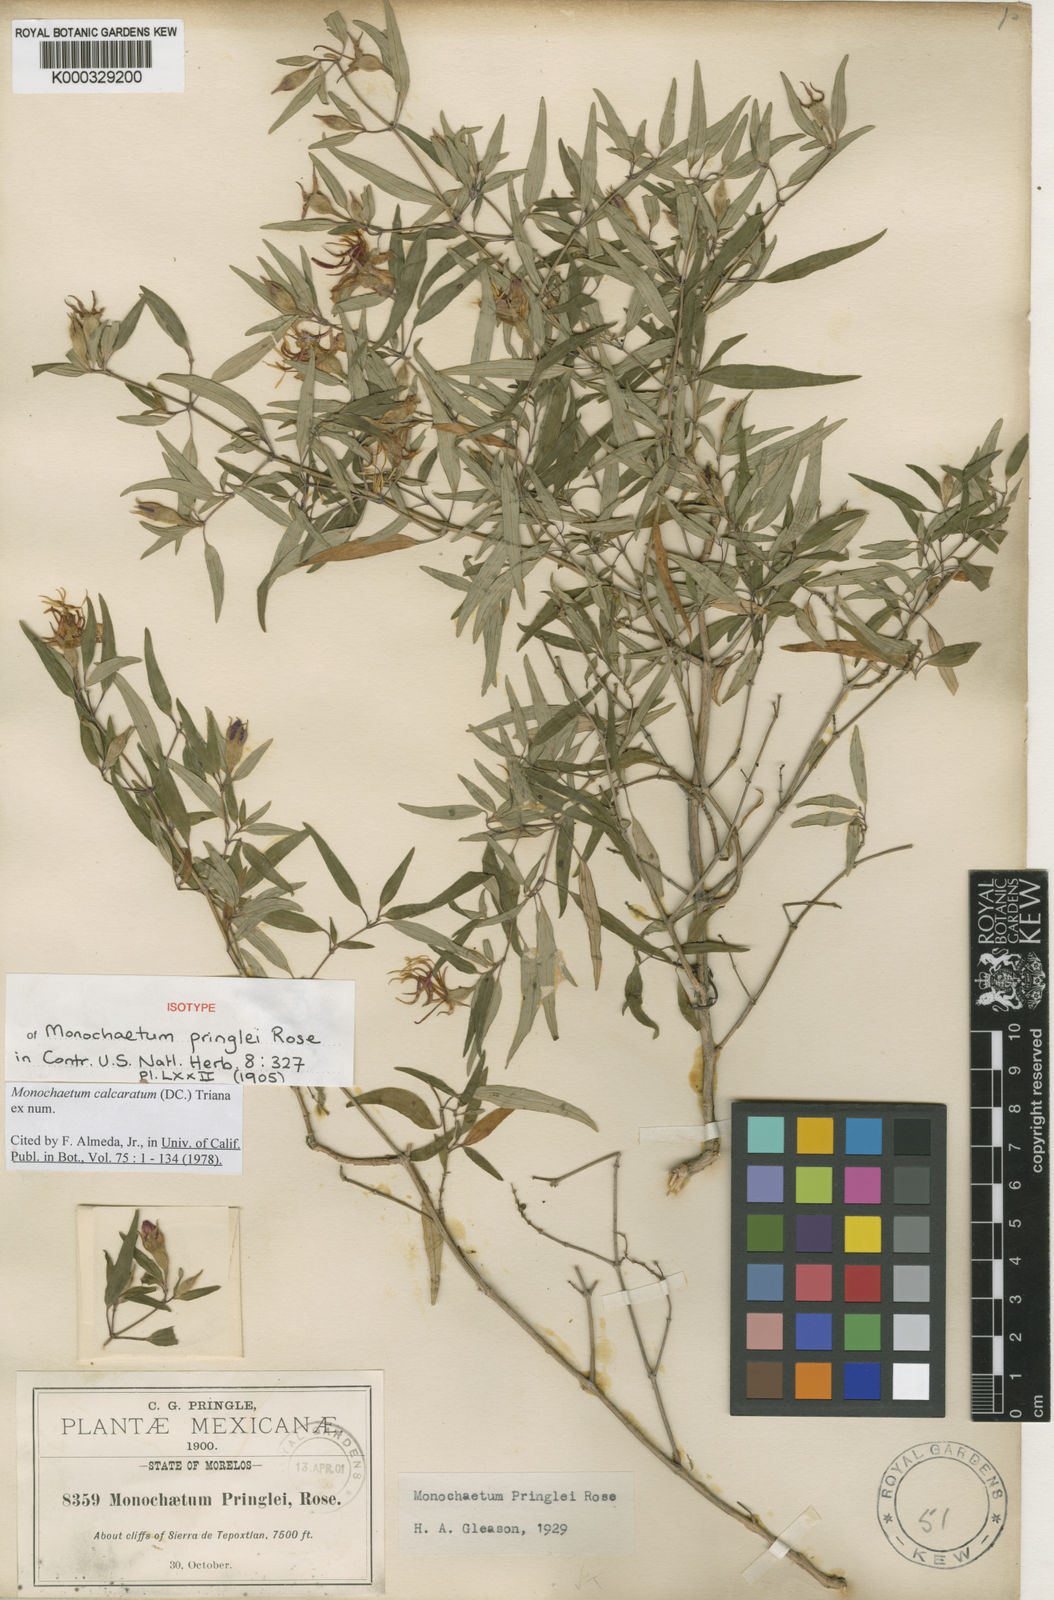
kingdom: Plantae
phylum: Tracheophyta
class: Magnoliopsida
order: Myrtales
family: Melastomataceae
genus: Monochaetum
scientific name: Monochaetum calcaratum
